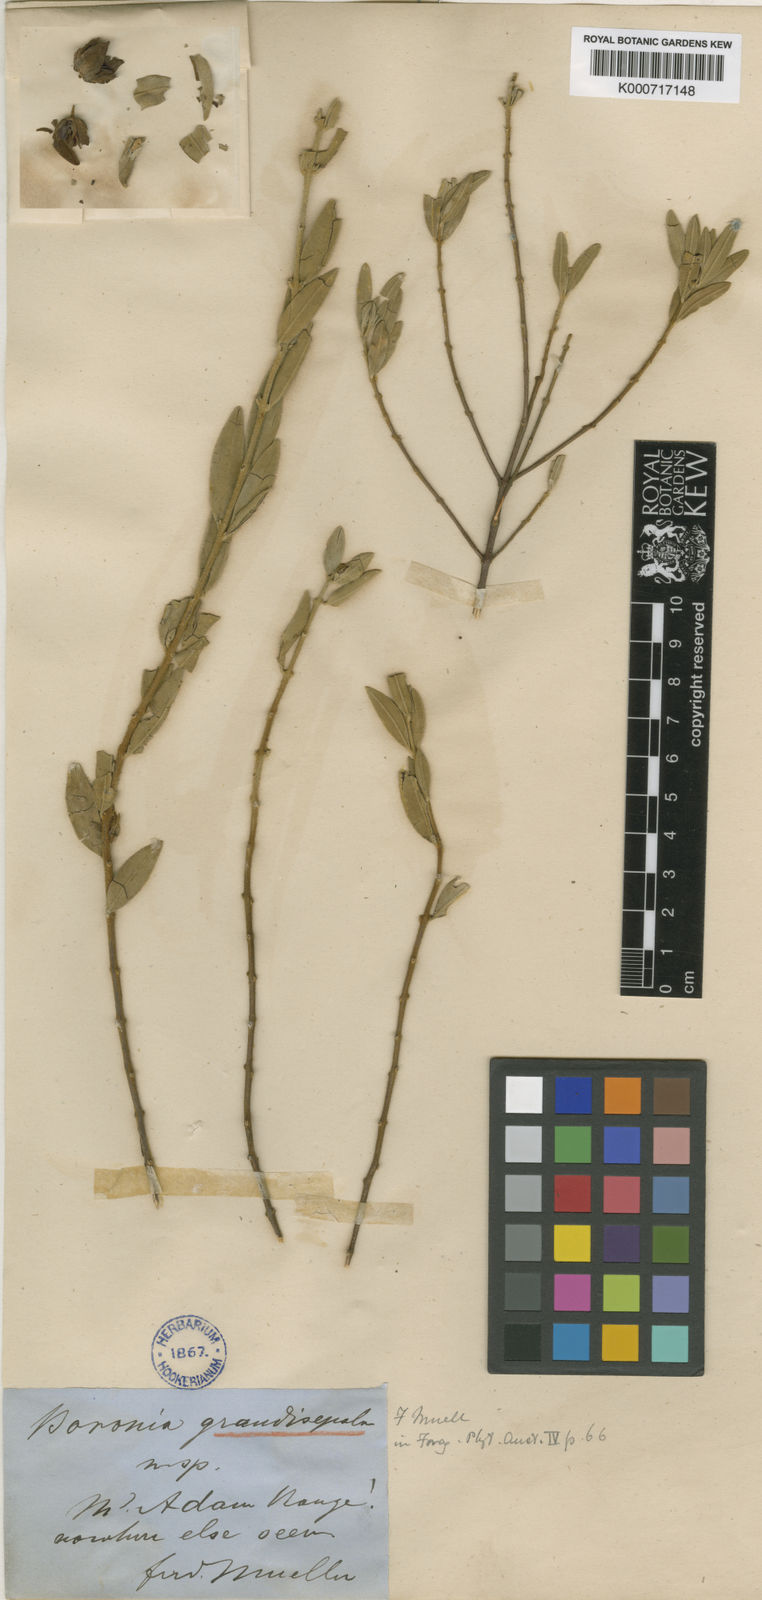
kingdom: Plantae
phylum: Tracheophyta
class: Magnoliopsida
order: Sapindales
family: Rutaceae
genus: Boronia
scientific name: Boronia grandisepala
